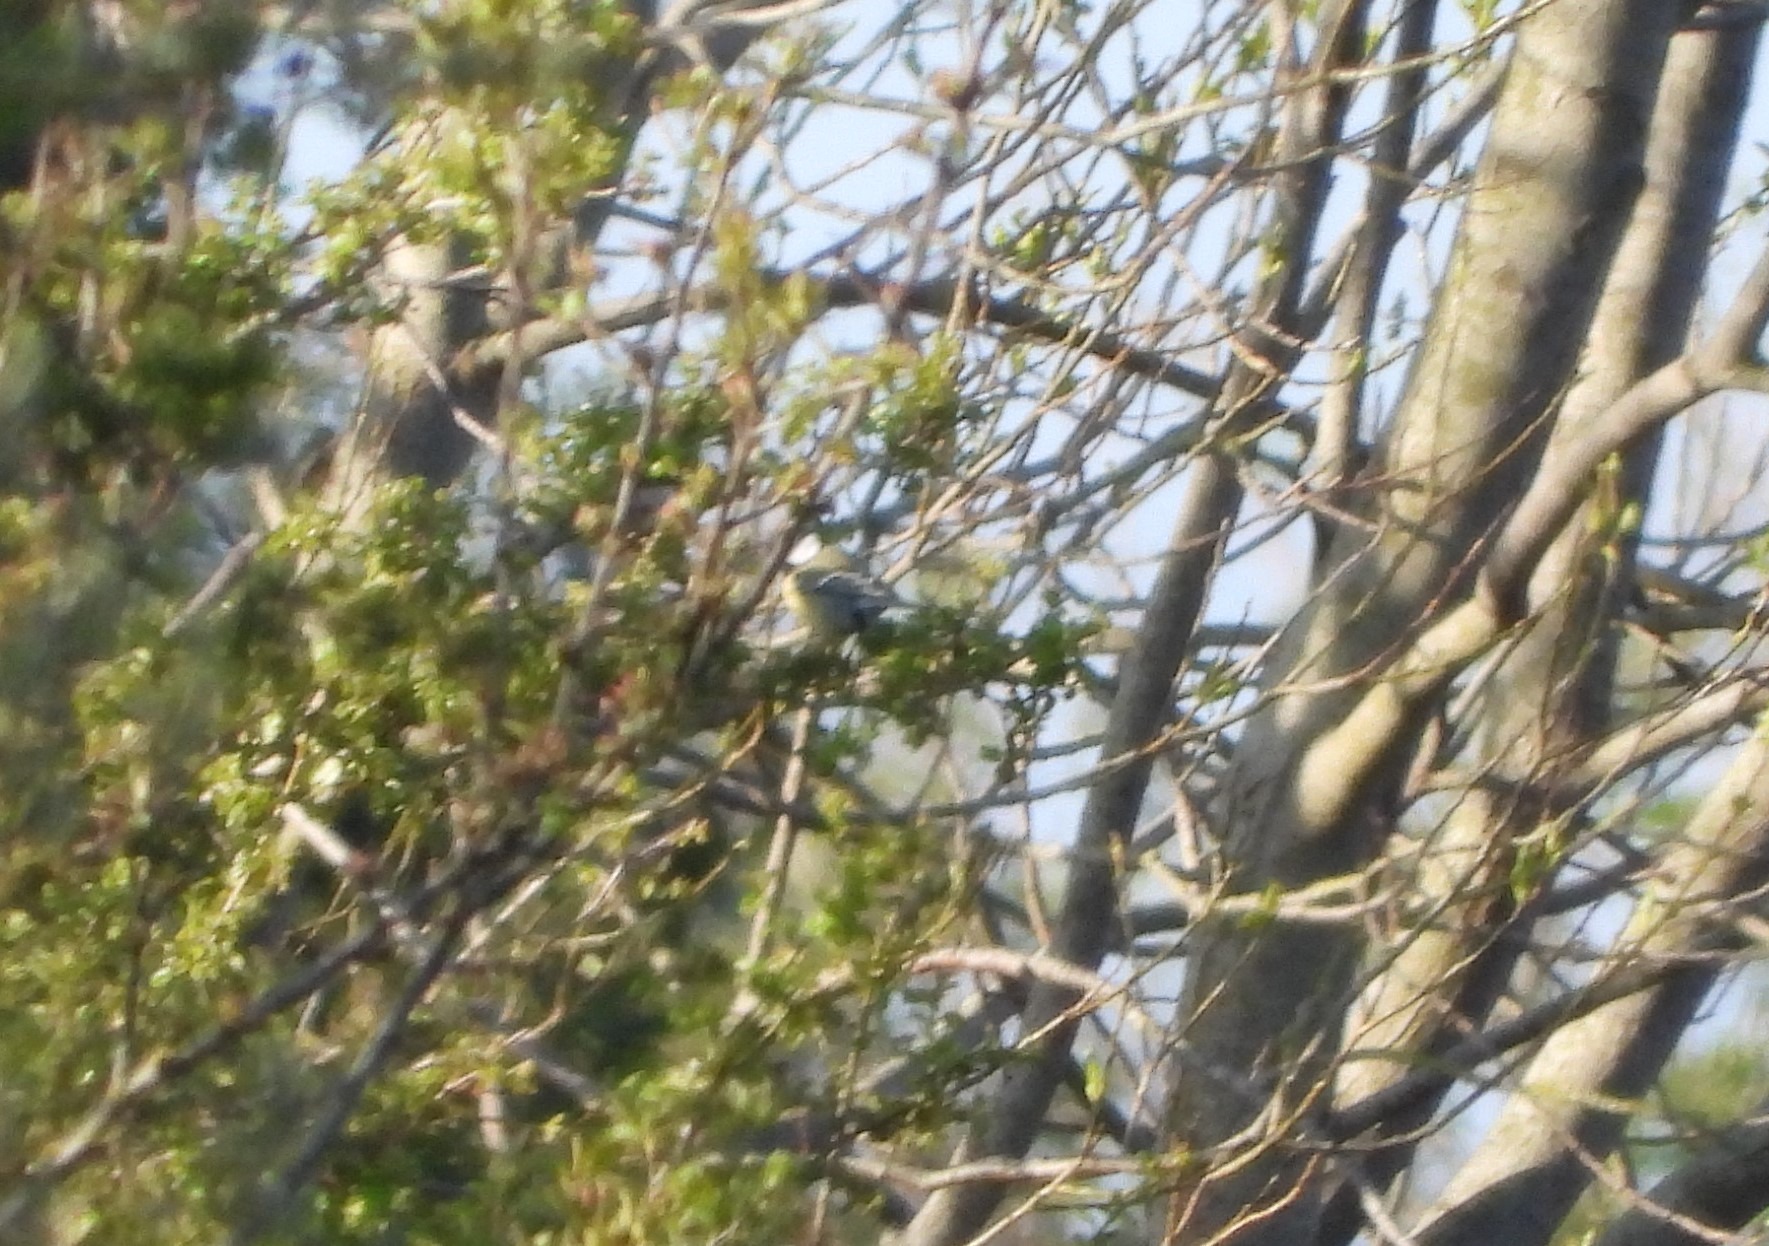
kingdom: Animalia
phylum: Chordata
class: Aves
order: Passeriformes
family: Paridae
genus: Parus
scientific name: Parus major
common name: Musvit
